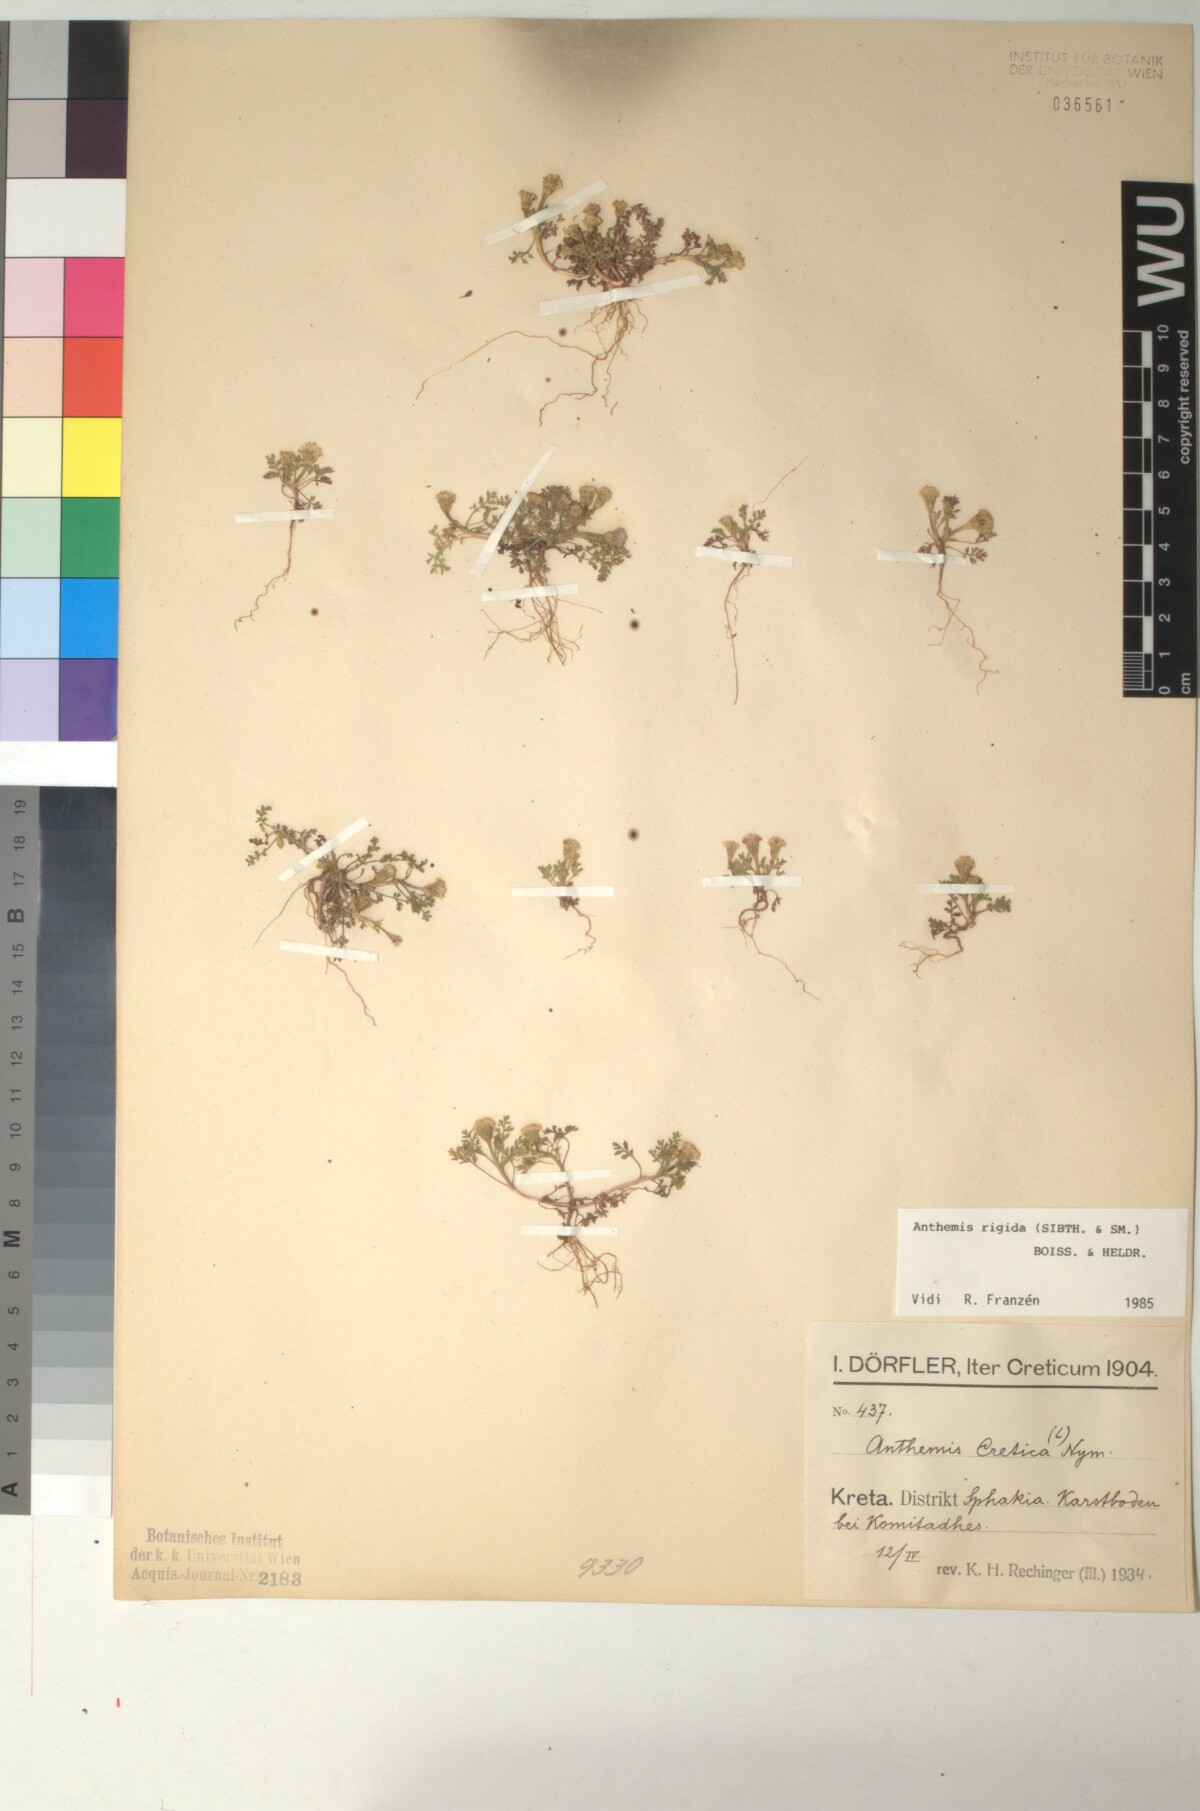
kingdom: Plantae
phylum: Tracheophyta
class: Magnoliopsida
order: Asterales
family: Asteraceae
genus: Anthemis
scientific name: Anthemis rigida
